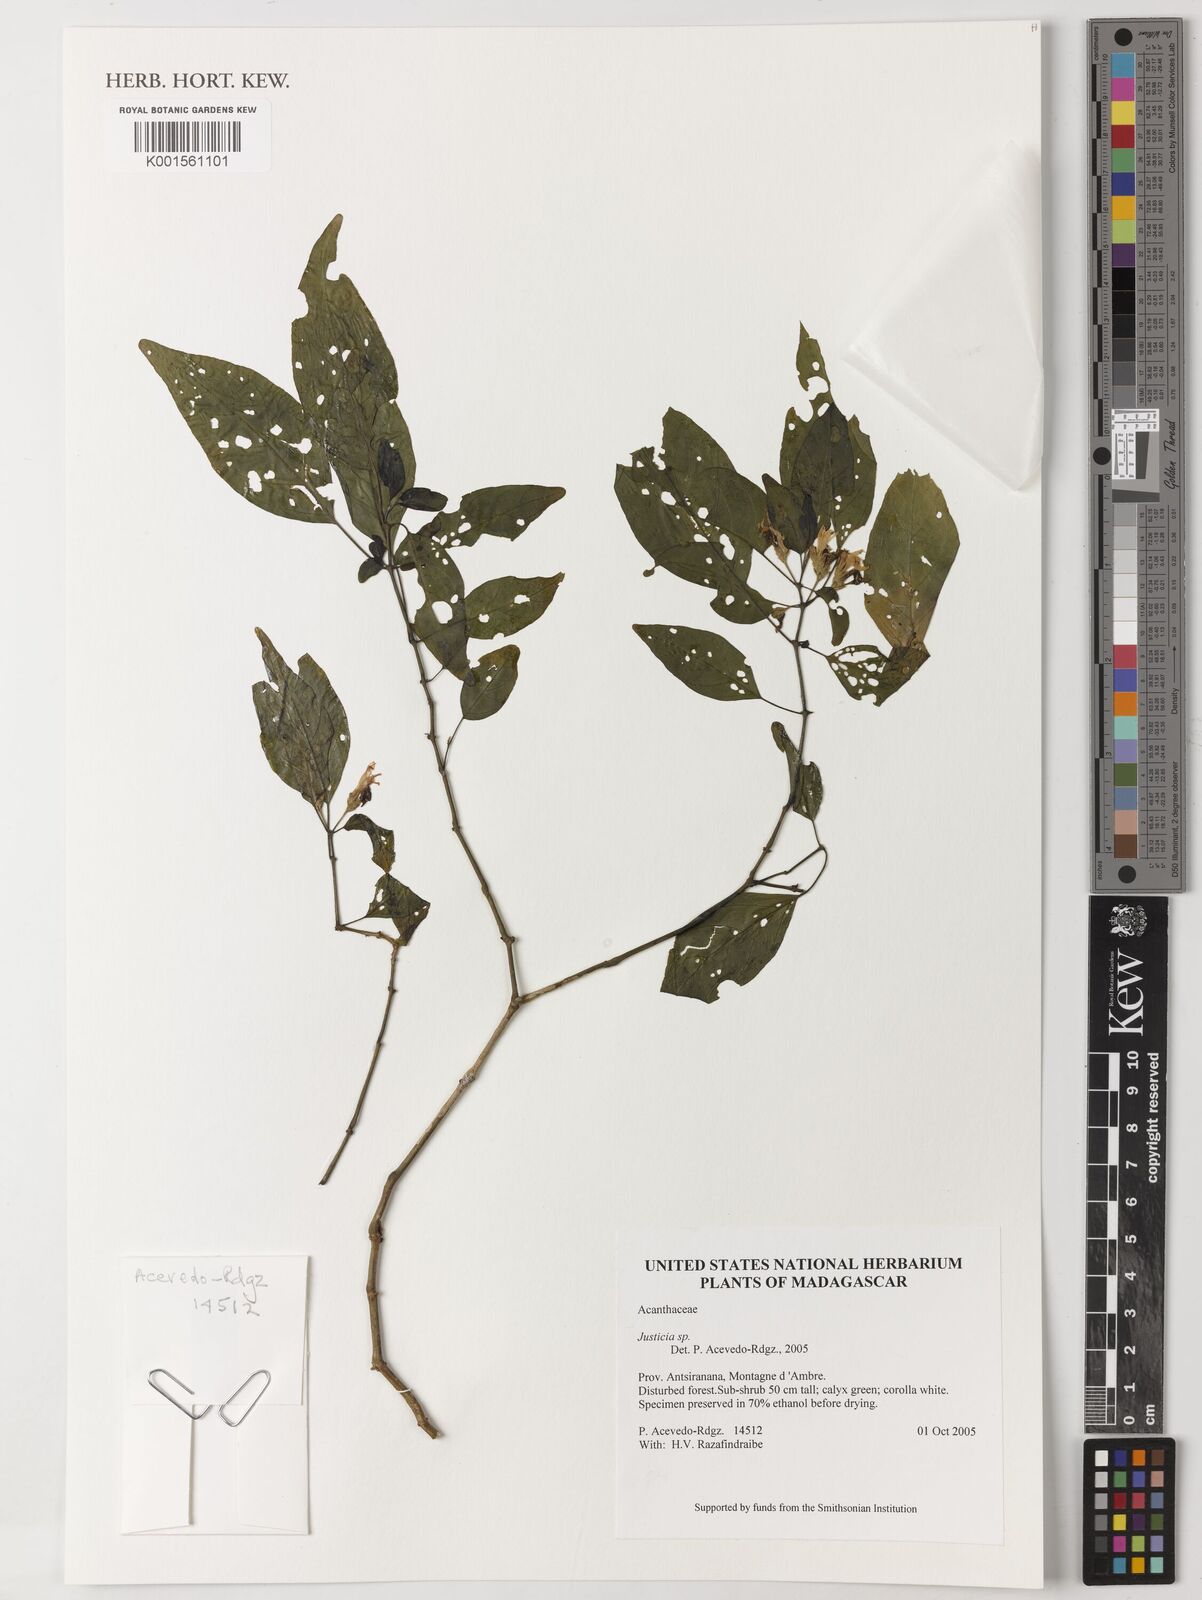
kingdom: Plantae
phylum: Tracheophyta
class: Magnoliopsida
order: Lamiales
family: Acanthaceae
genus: Justicia
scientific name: Justicia
